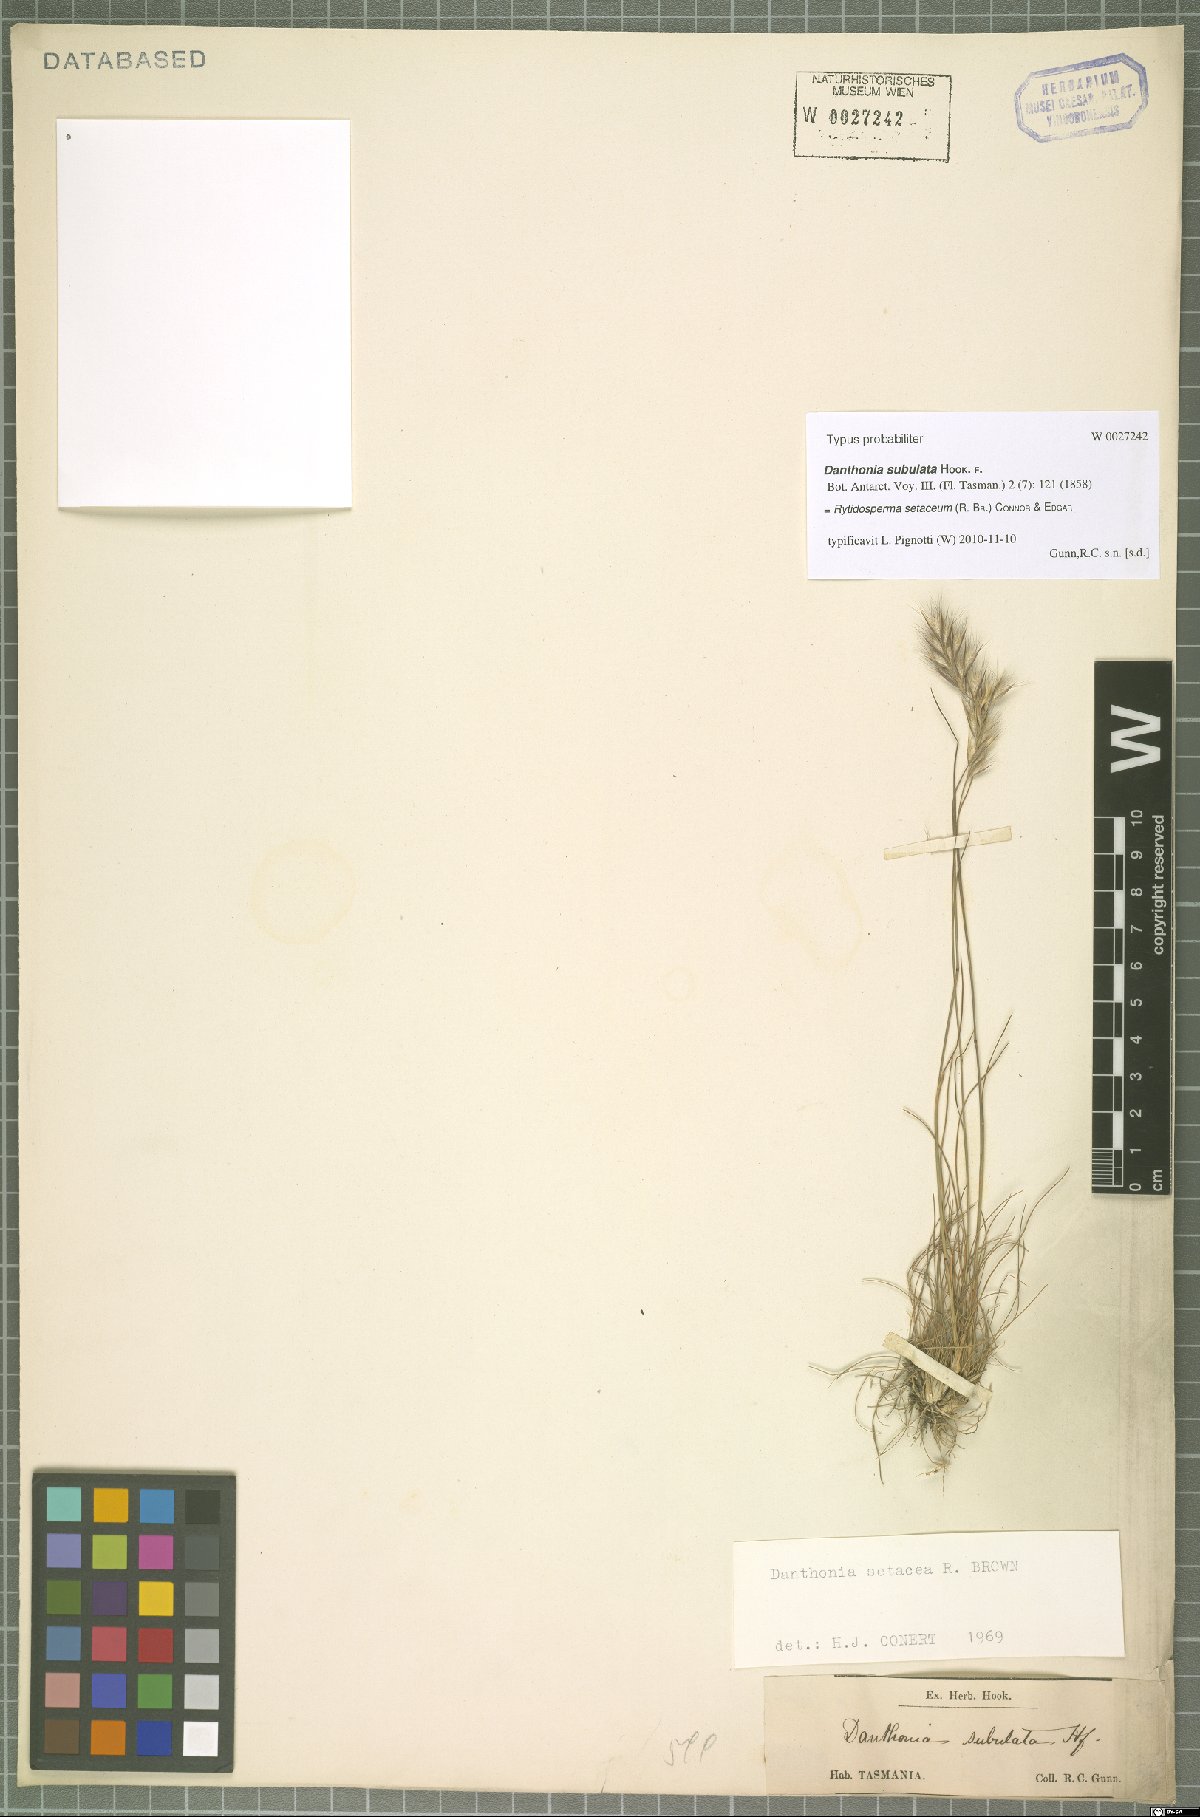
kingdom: Plantae
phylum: Tracheophyta
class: Liliopsida
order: Poales
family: Poaceae
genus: Rytidosperma
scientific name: Rytidosperma setaceum
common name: Small-flower wallaby grass
